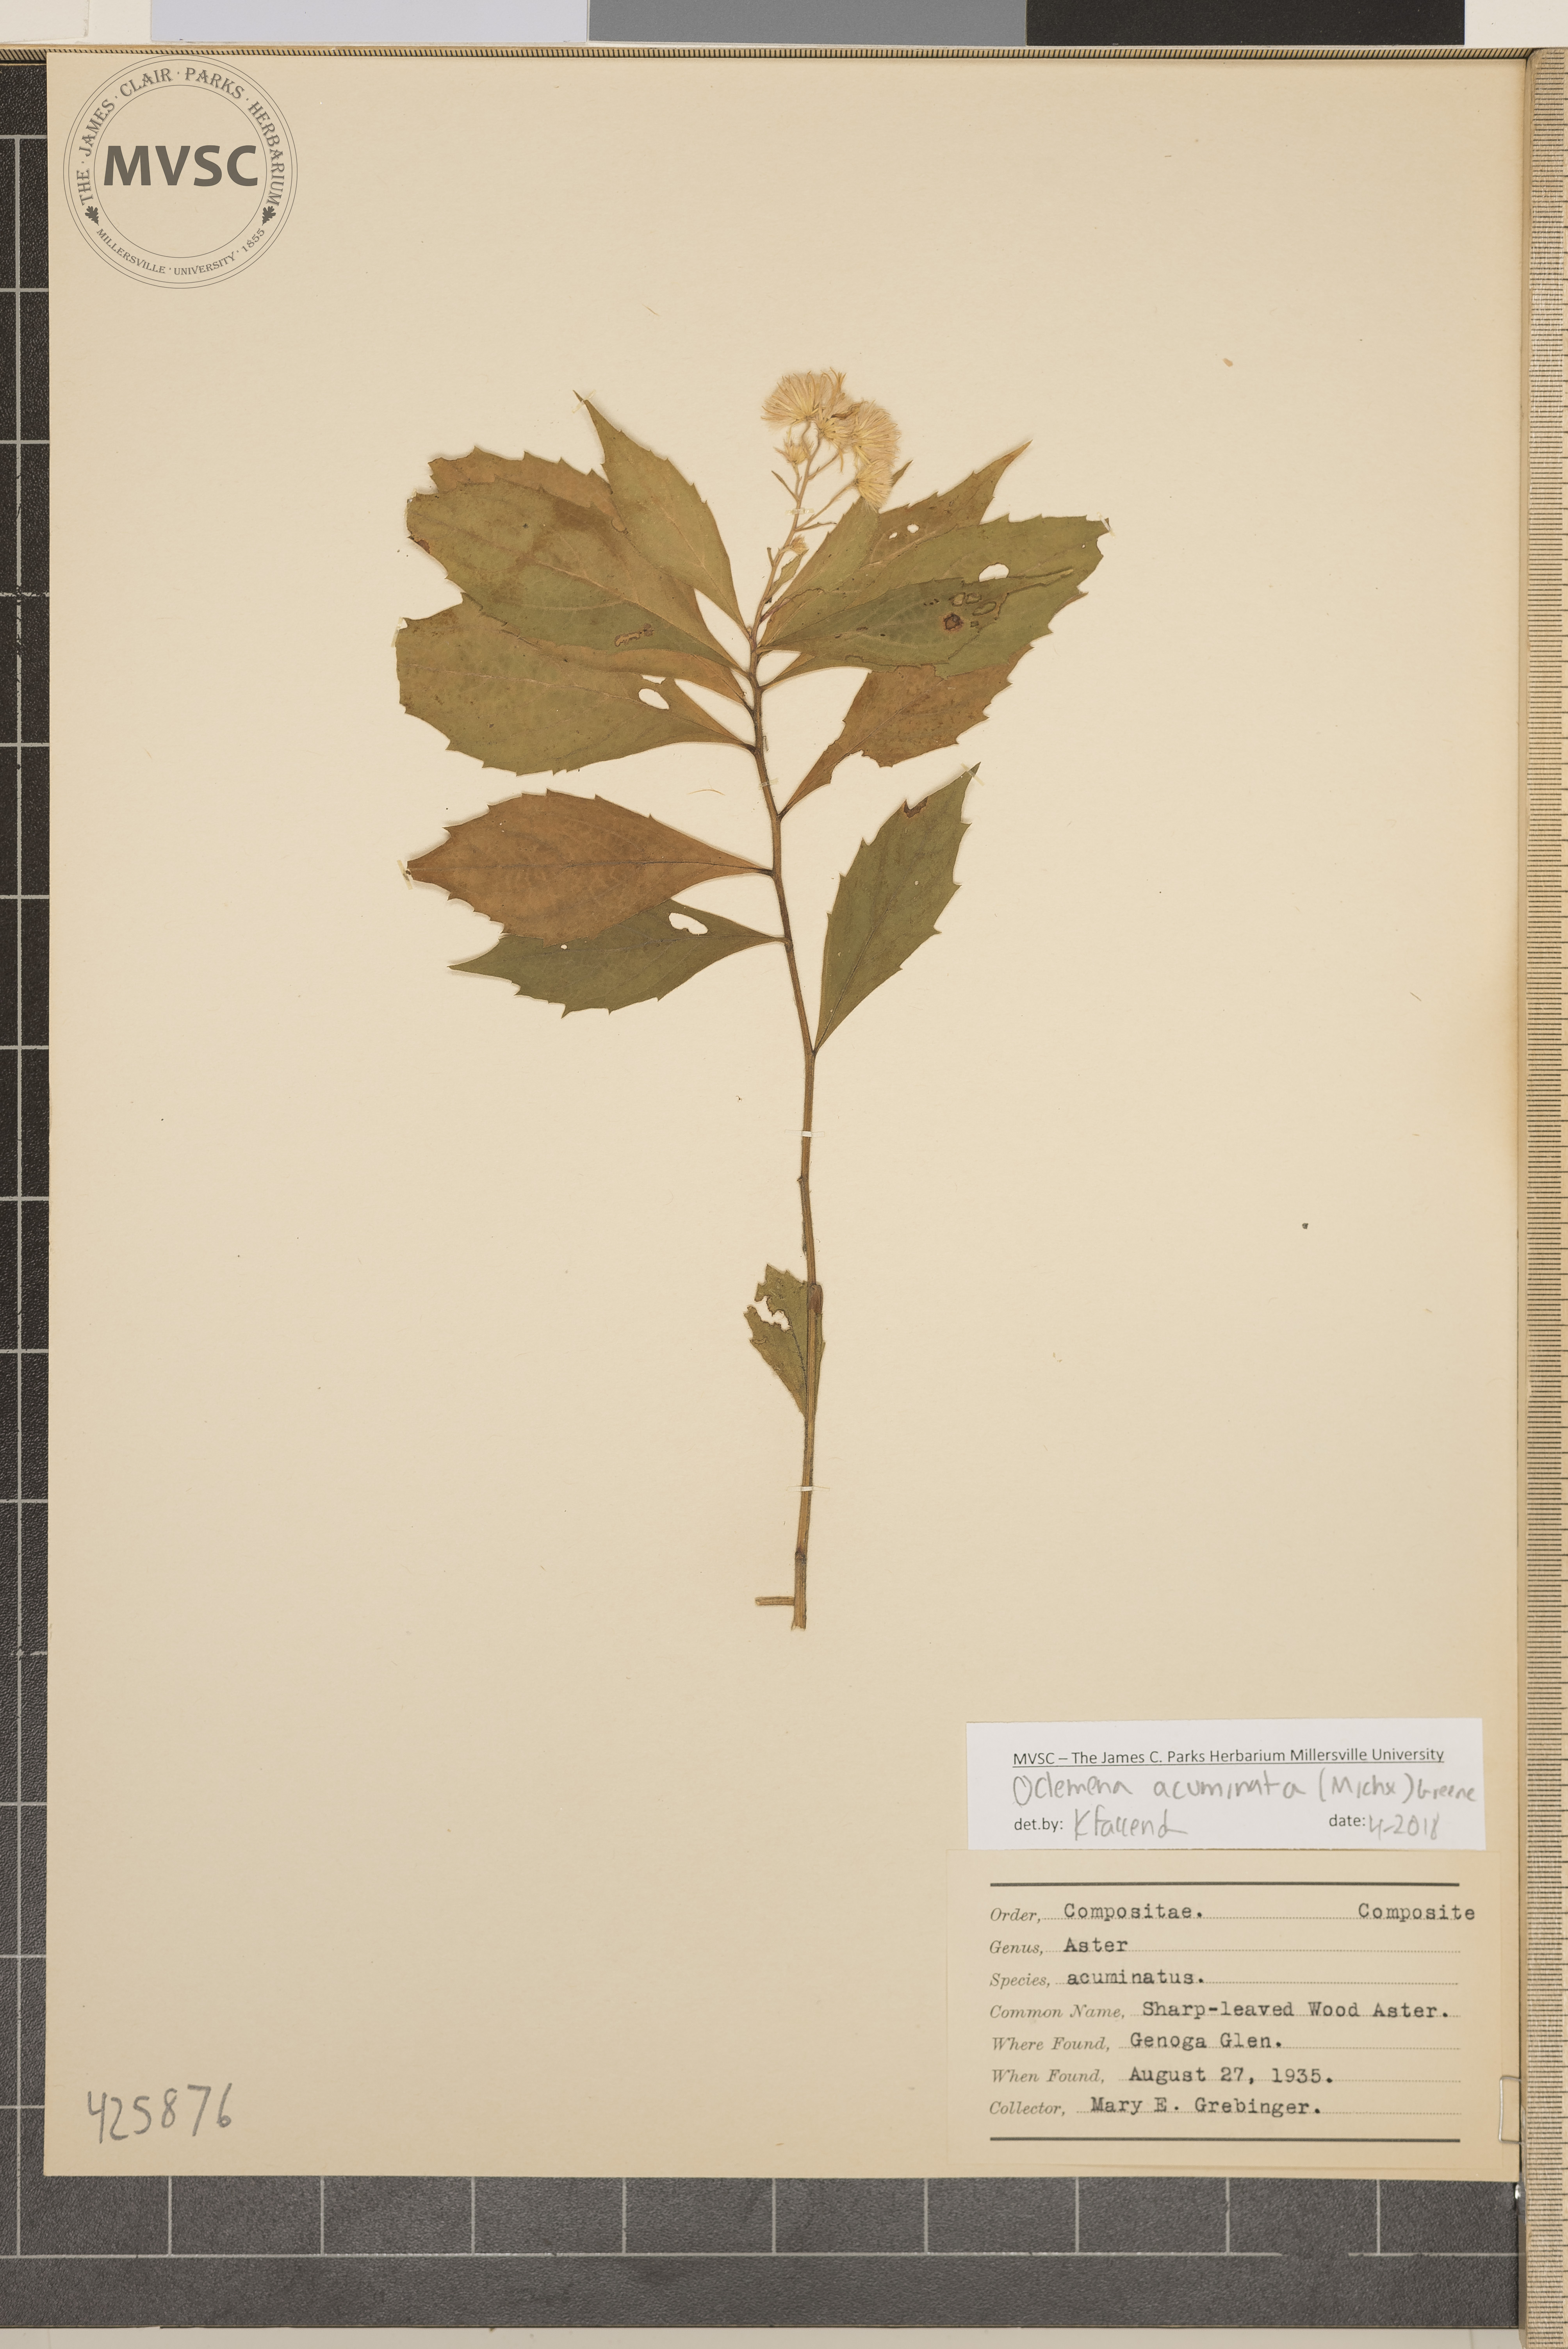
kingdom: Plantae
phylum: Tracheophyta
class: Magnoliopsida
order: Asterales
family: Asteraceae
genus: Oclemena
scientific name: Oclemena acuminata
